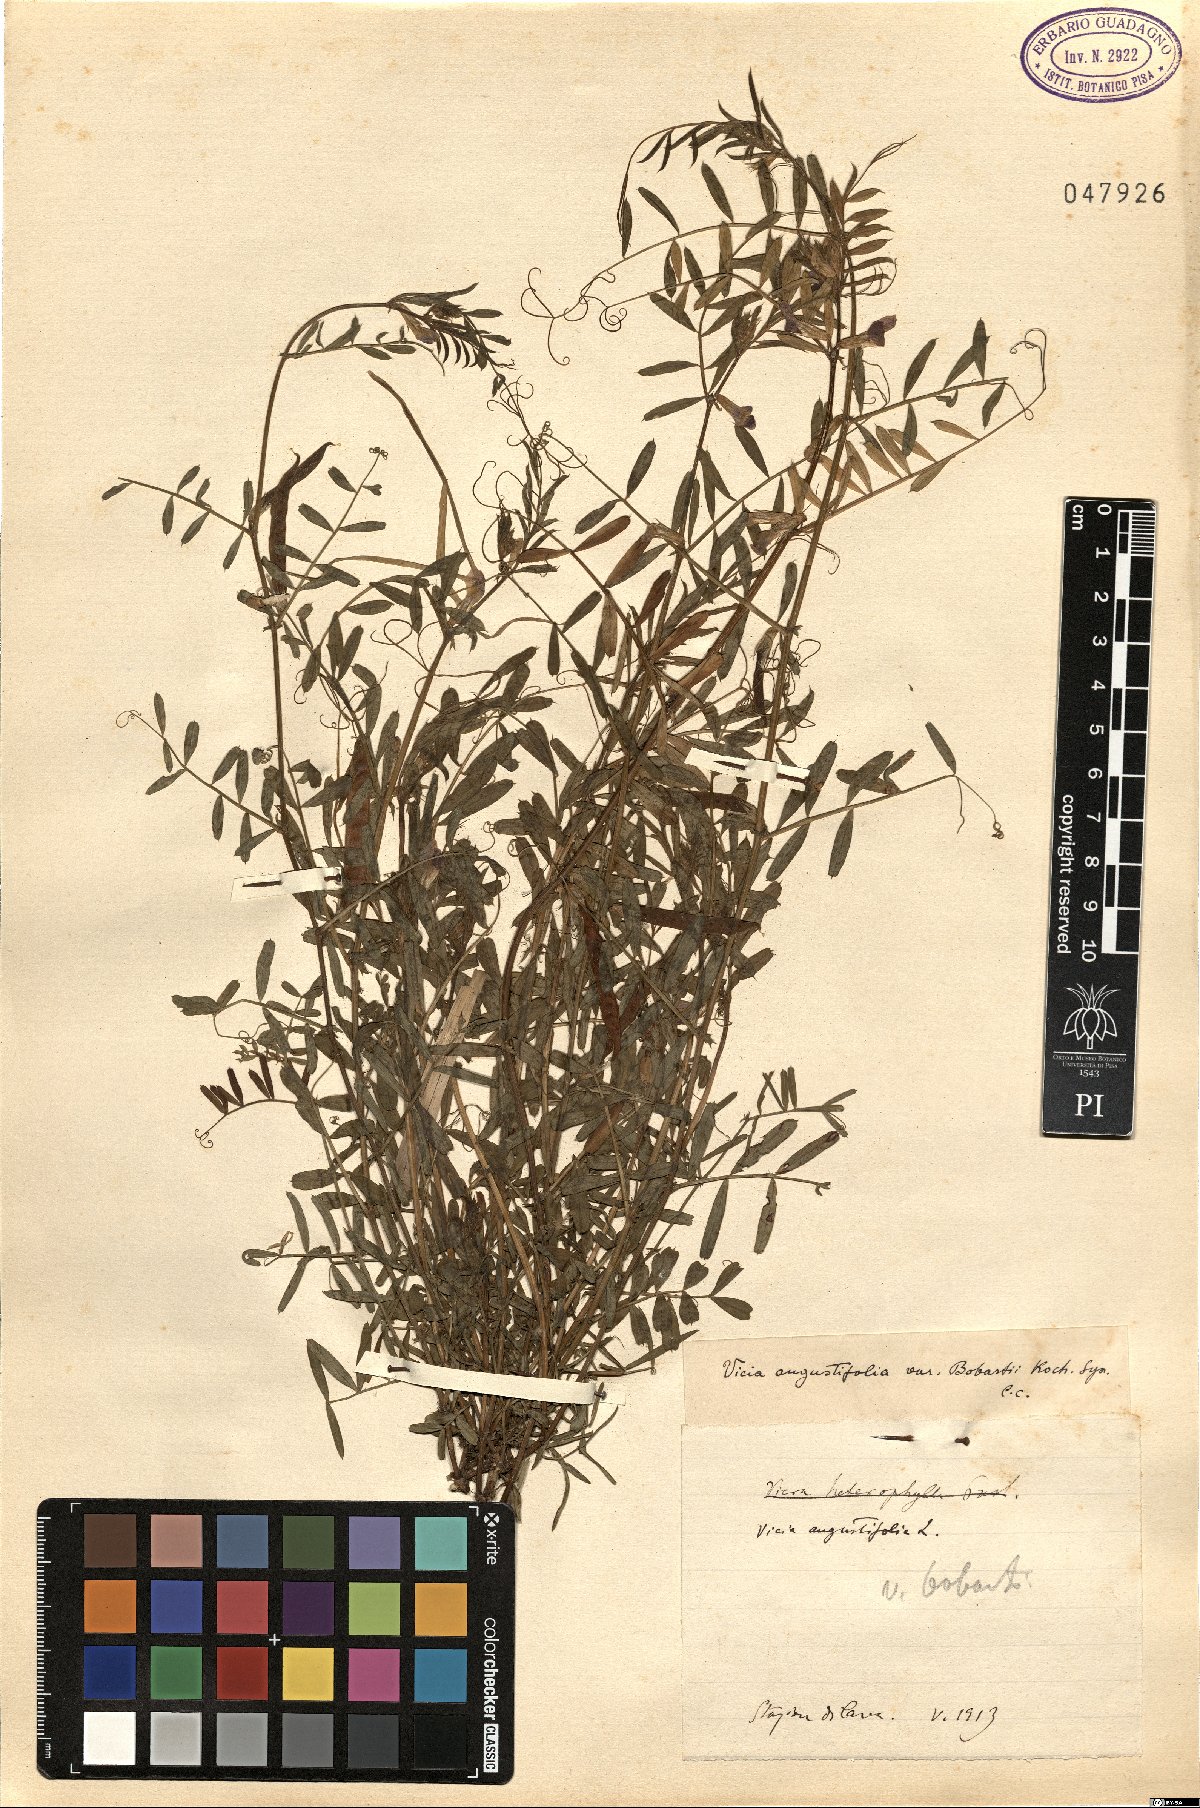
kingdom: Plantae
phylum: Tracheophyta
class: Magnoliopsida
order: Fabales
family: Fabaceae
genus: Vicia
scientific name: Vicia sativa
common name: Garden vetch
